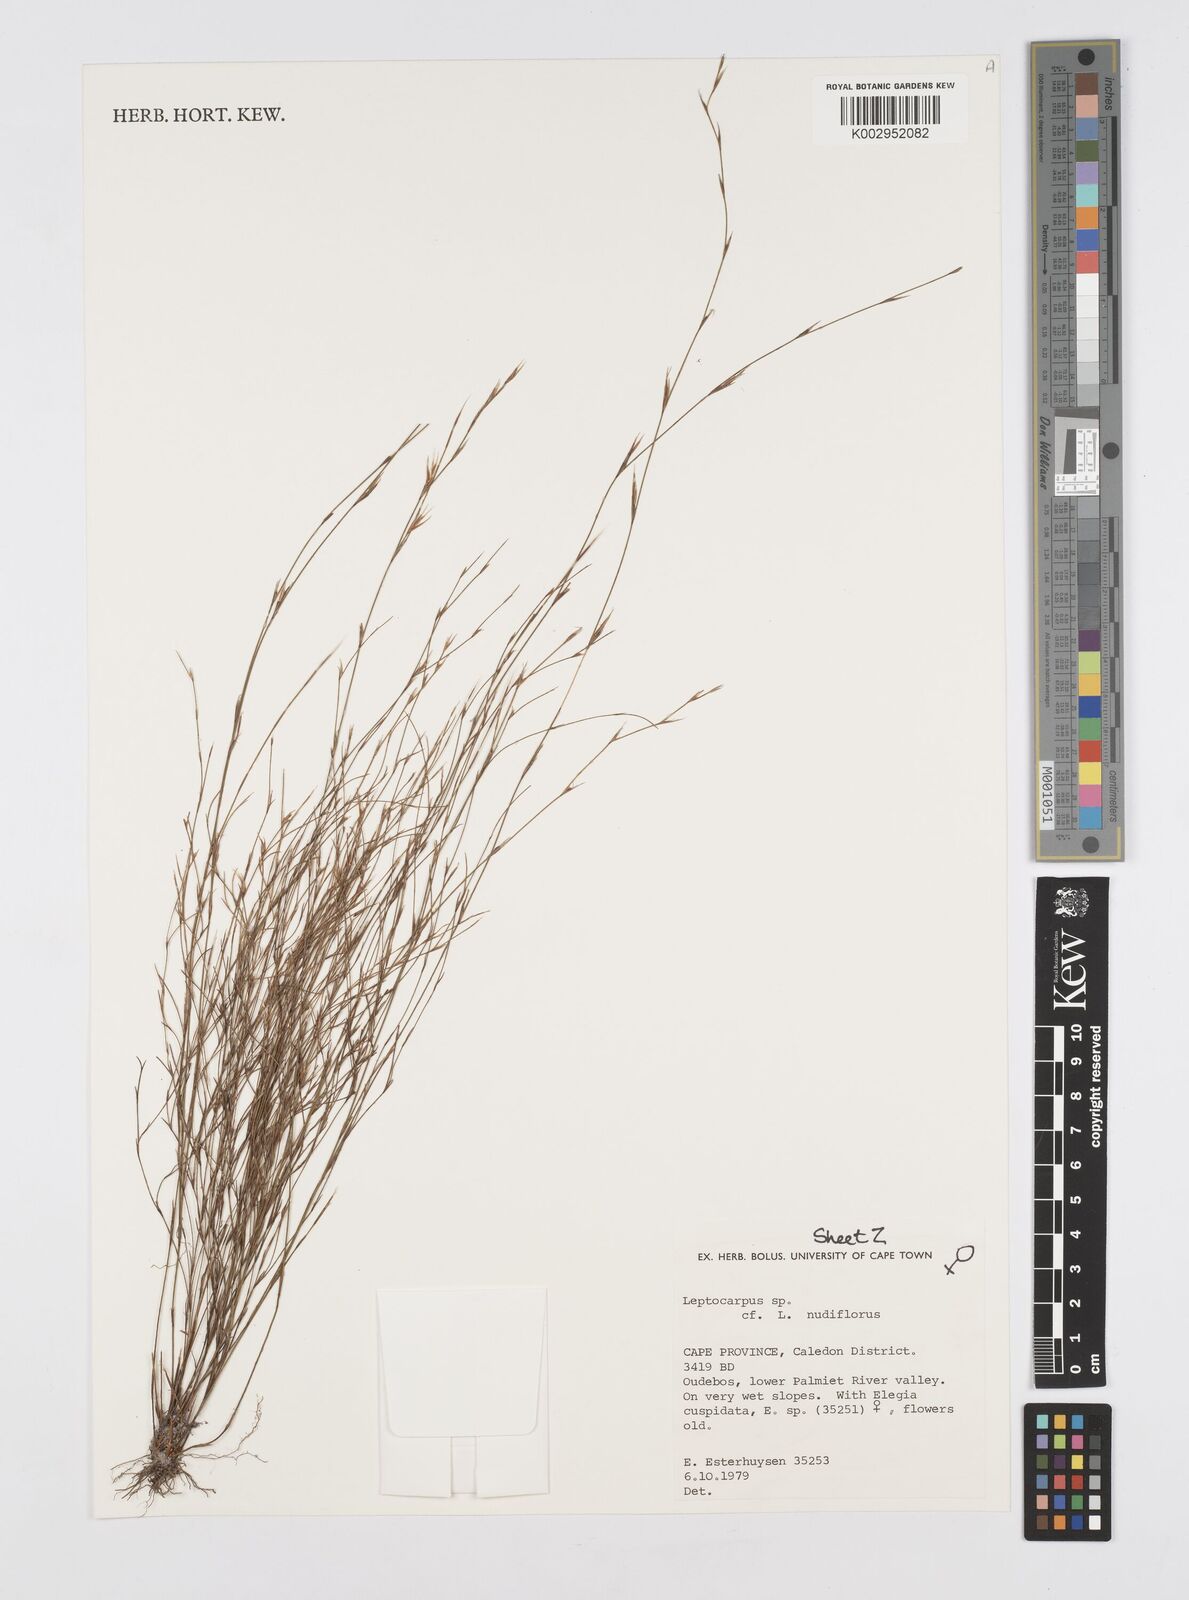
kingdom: Plantae
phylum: Tracheophyta
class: Liliopsida
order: Poales
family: Restionaceae
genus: Restio
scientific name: Restio nudiflorus
